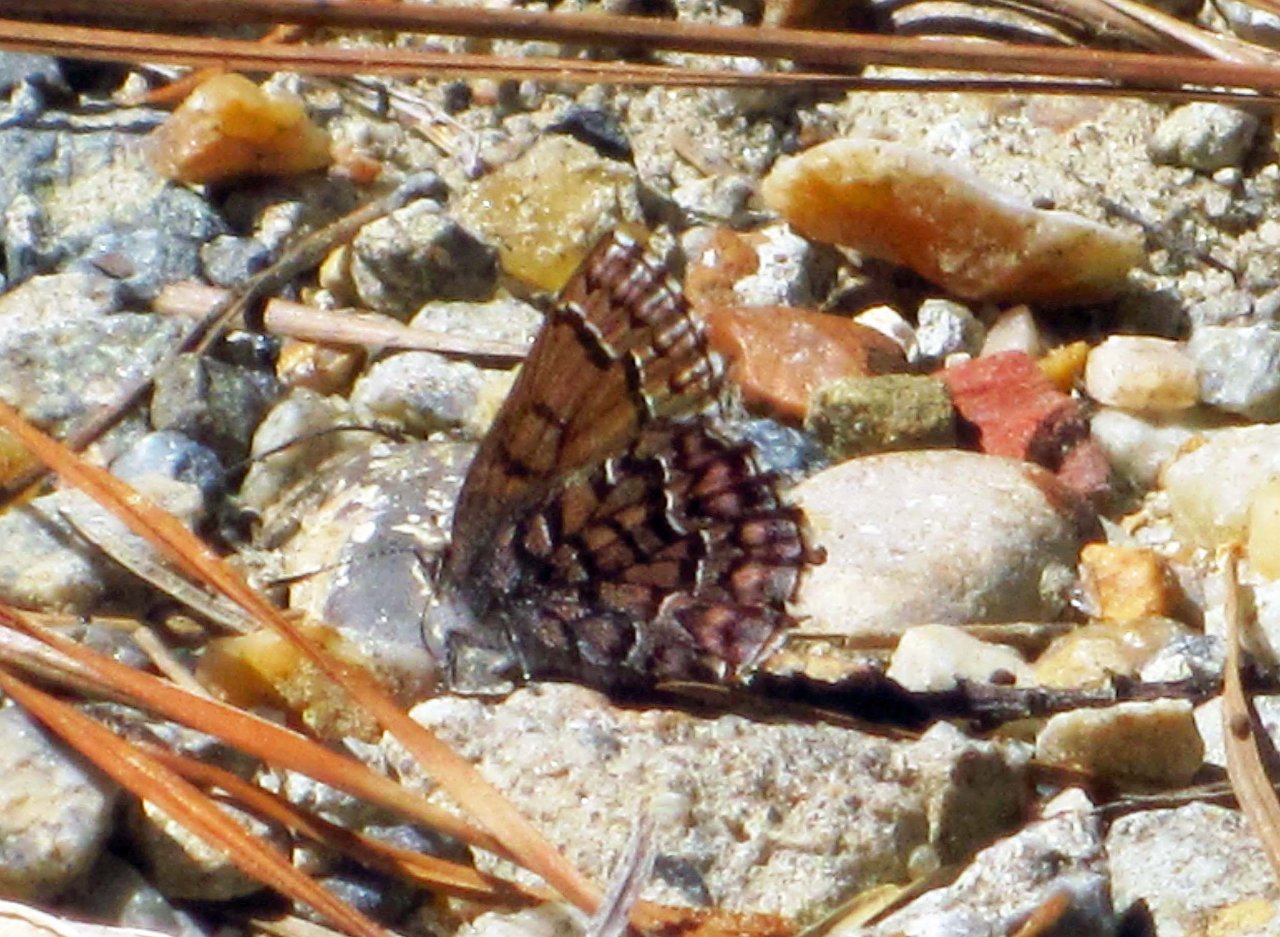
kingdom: Animalia
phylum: Arthropoda
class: Insecta
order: Lepidoptera
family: Lycaenidae
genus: Incisalia
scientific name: Incisalia niphon
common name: Eastern Pine Elfin
